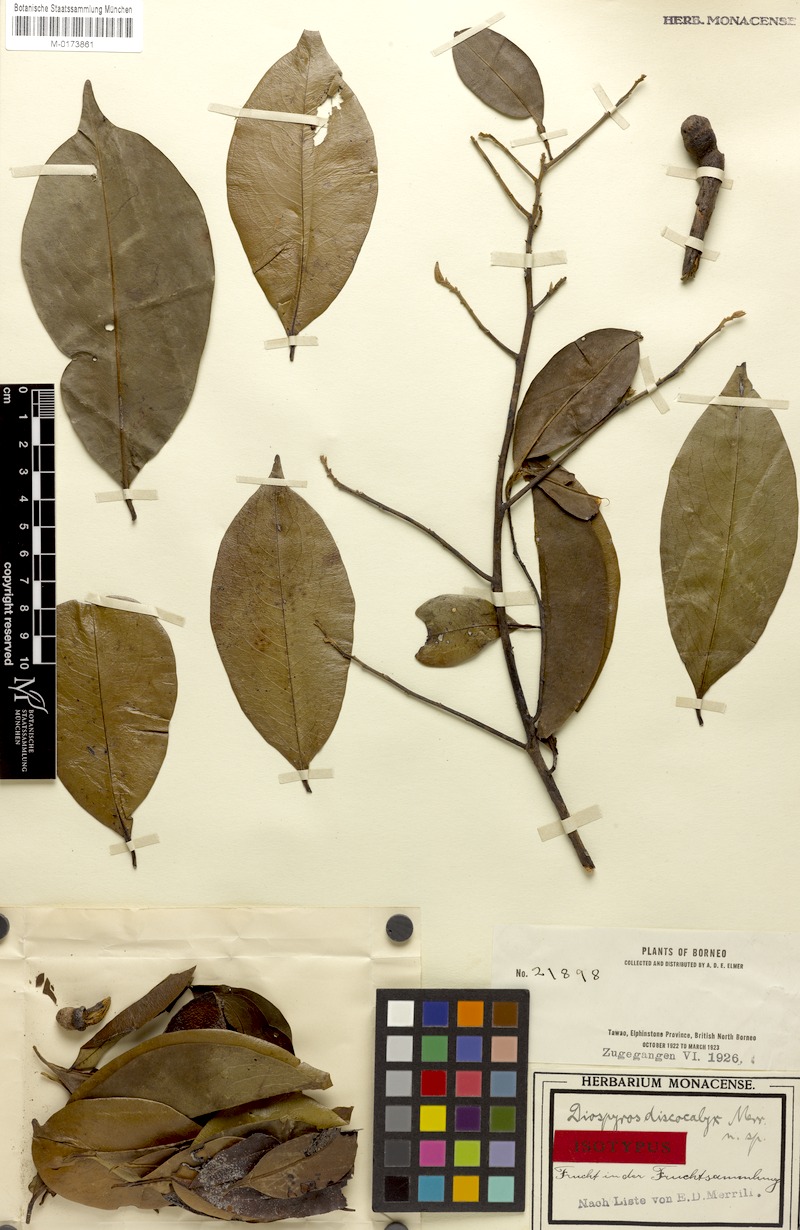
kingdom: Plantae
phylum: Tracheophyta
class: Magnoliopsida
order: Ericales
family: Ebenaceae
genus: Diospyros
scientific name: Diospyros discocalyx
